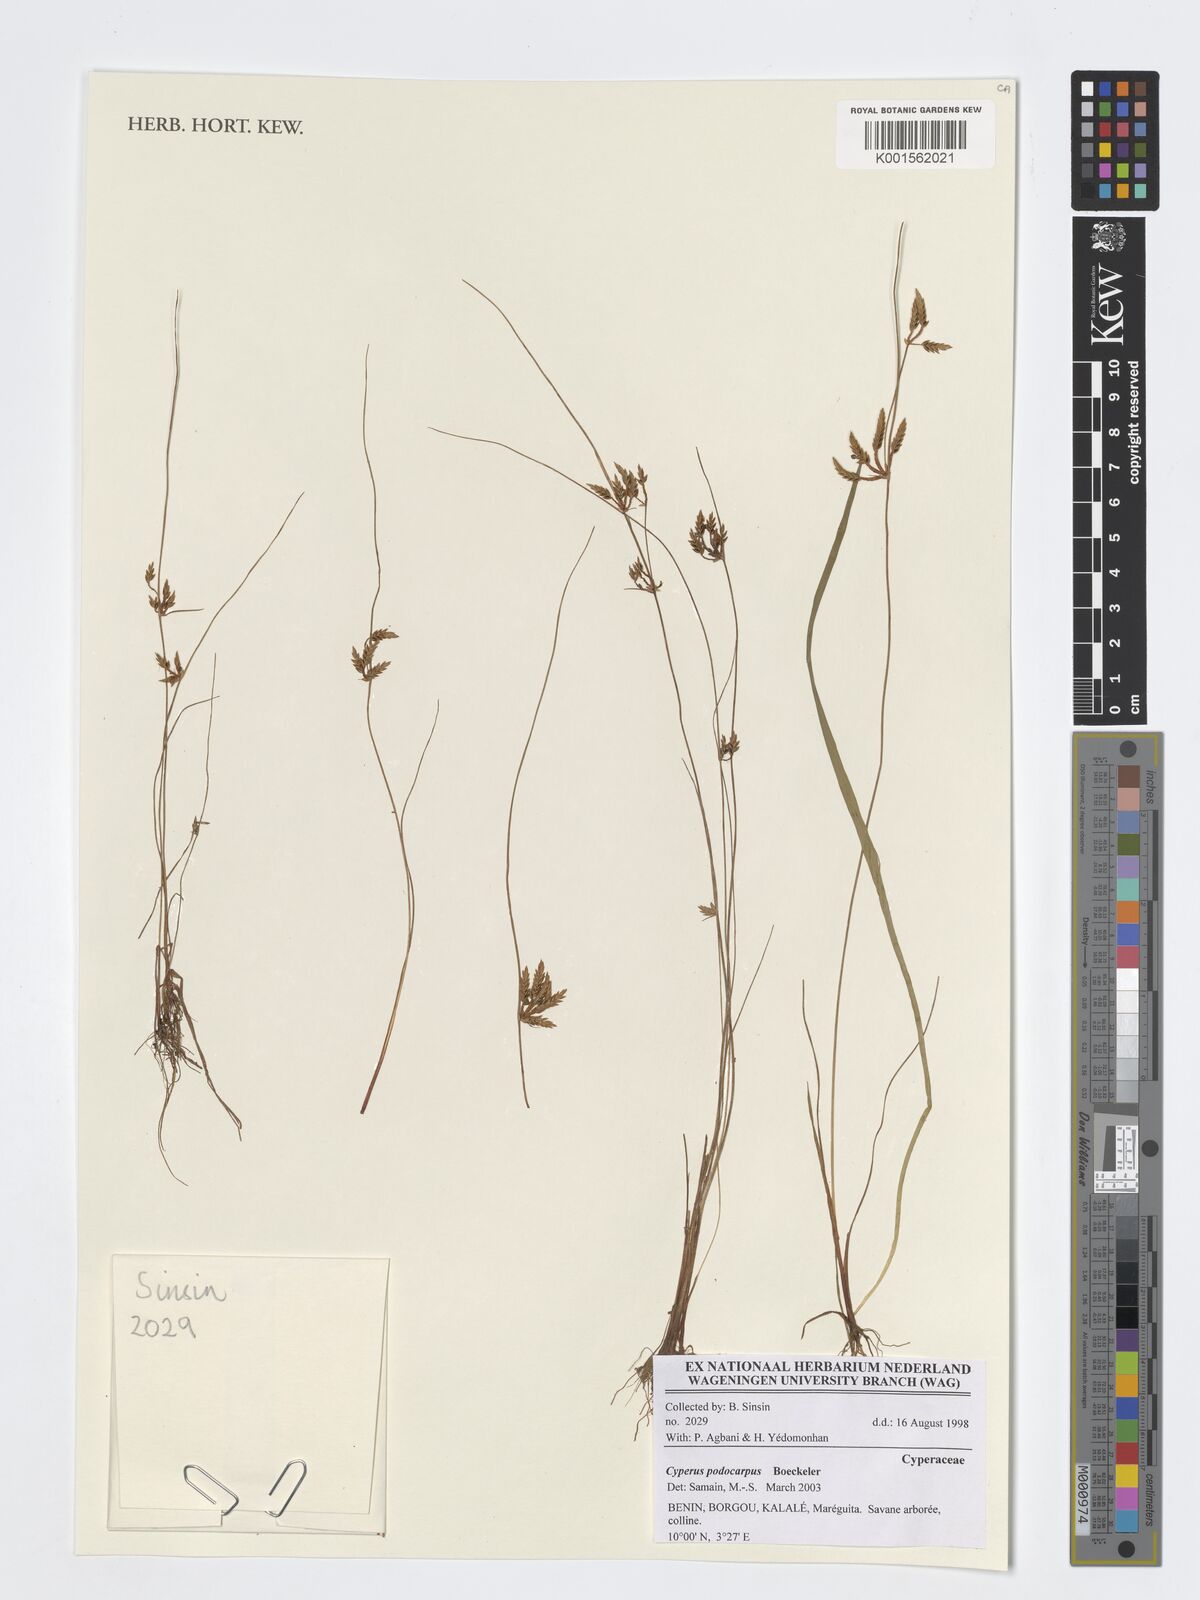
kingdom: Plantae
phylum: Tracheophyta
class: Liliopsida
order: Poales
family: Cyperaceae
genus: Cyperus
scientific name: Cyperus podocarpus
